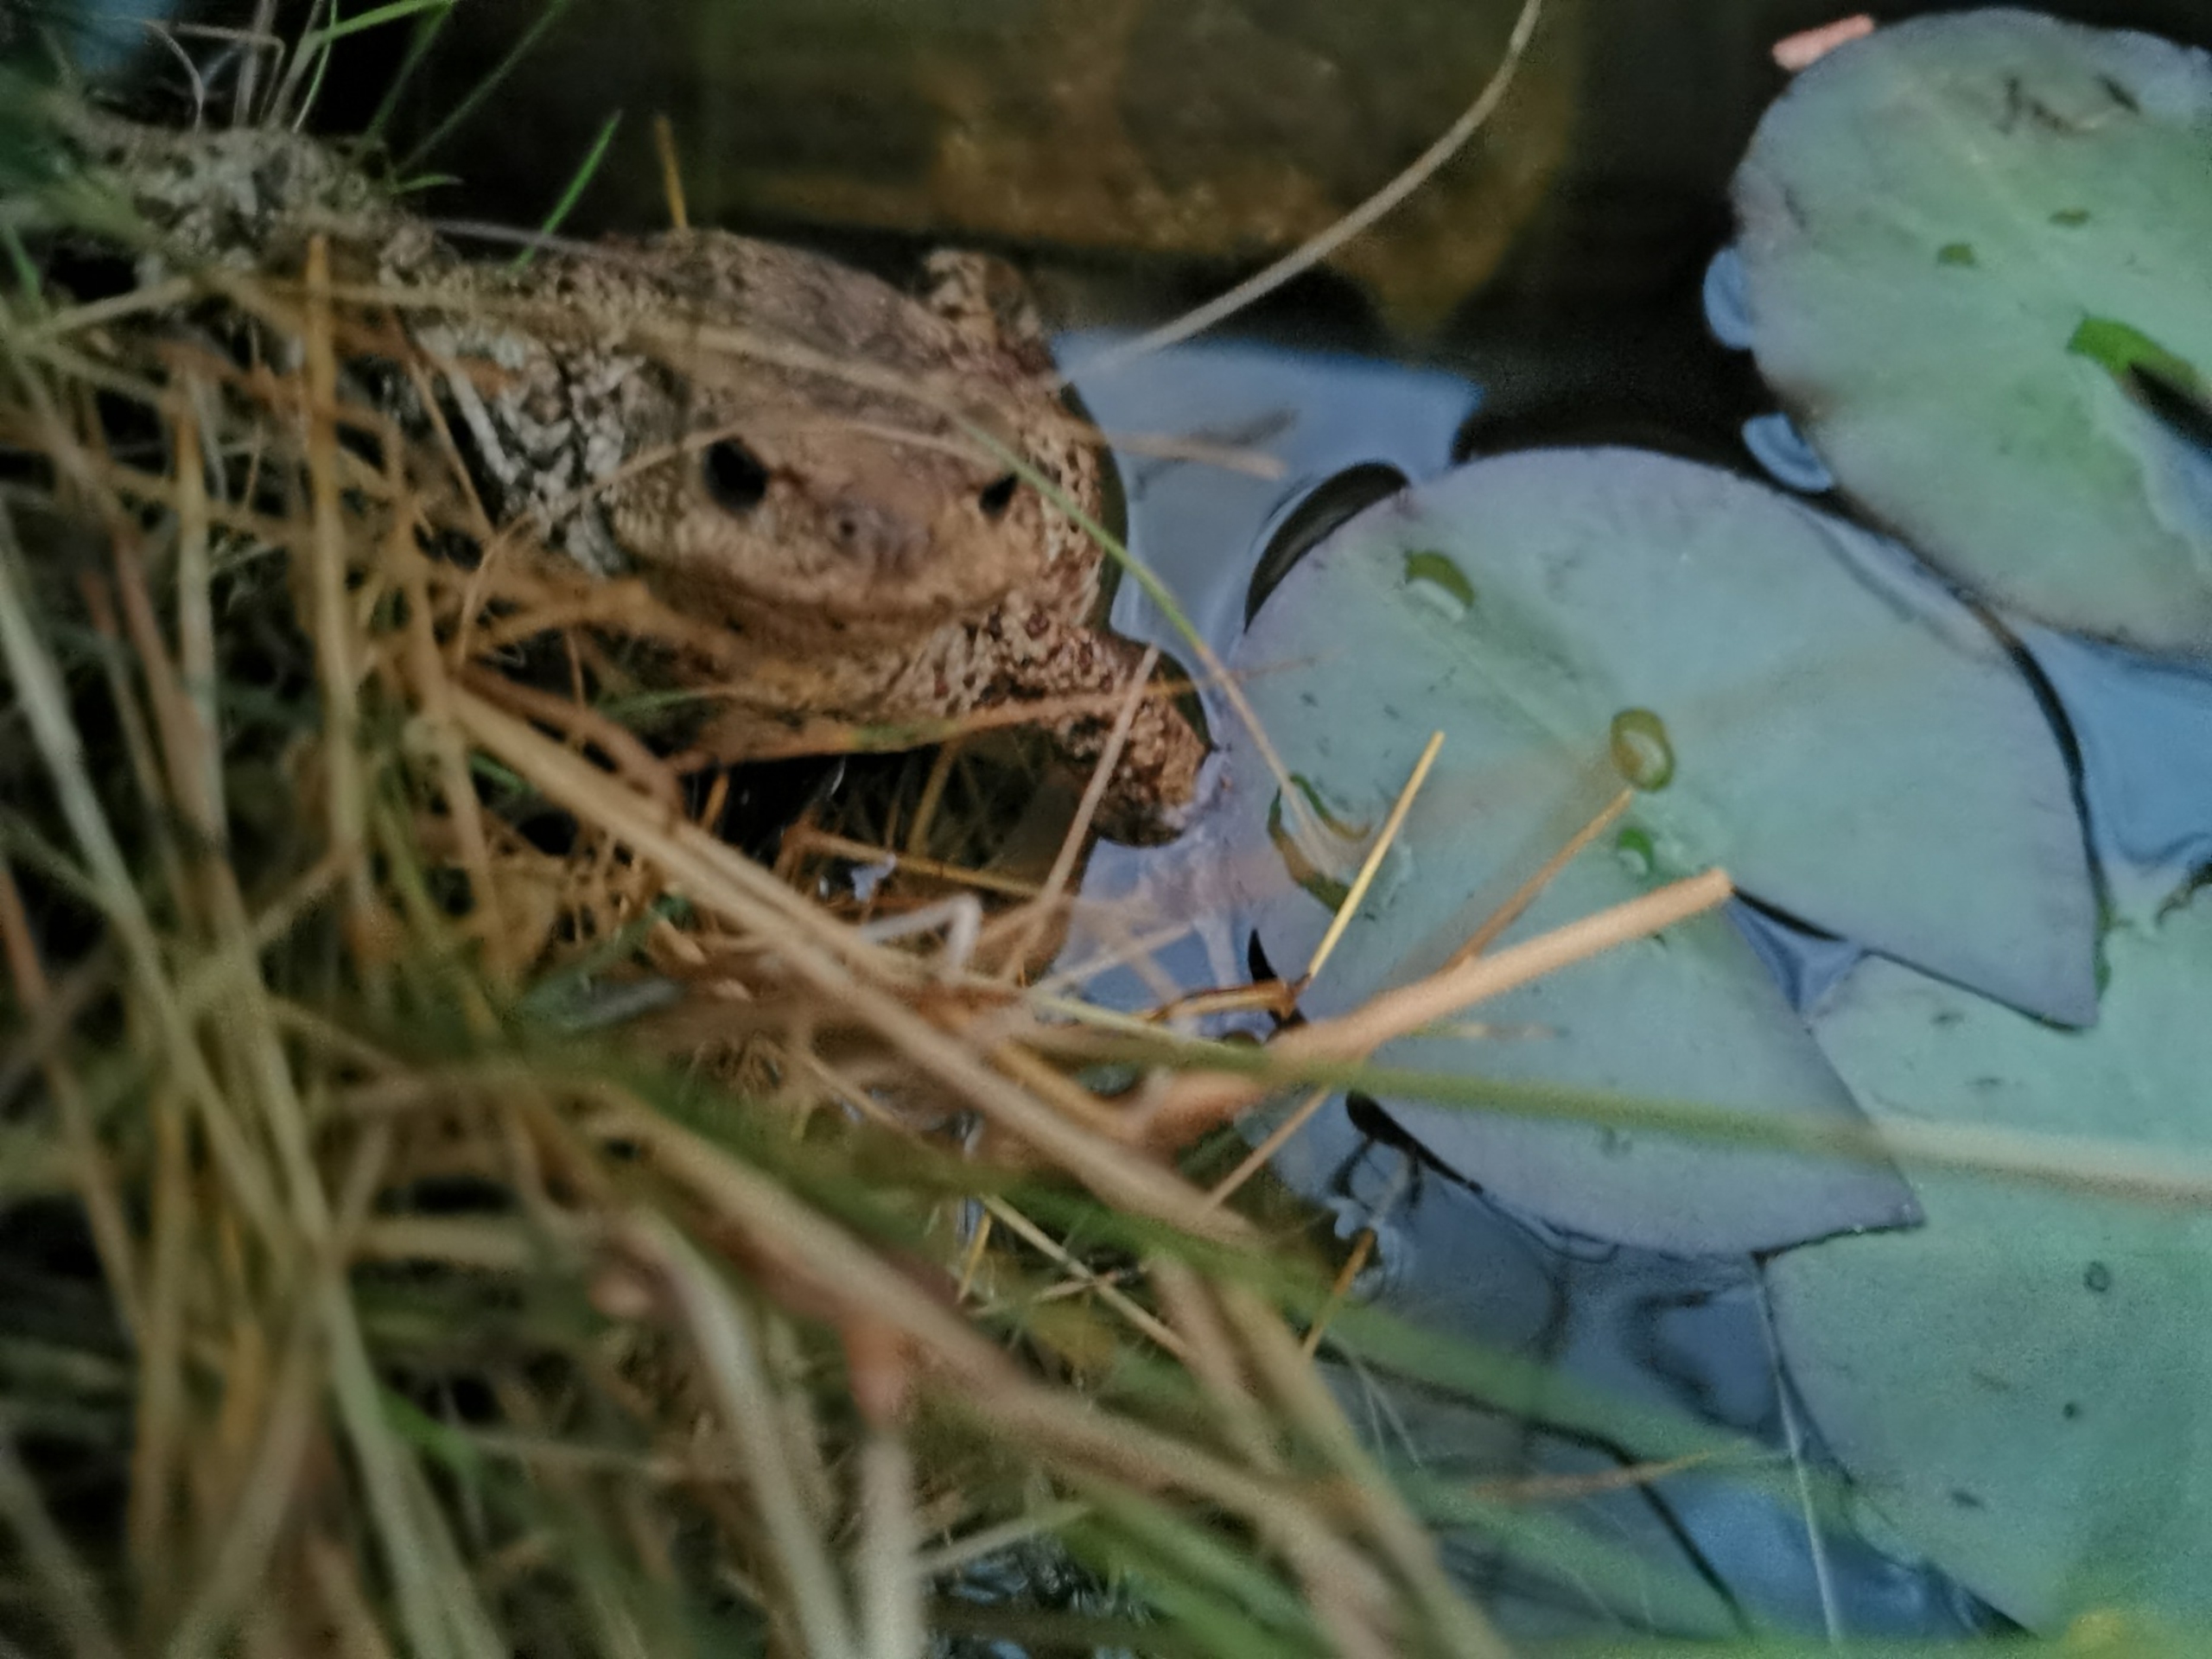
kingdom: Animalia
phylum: Chordata
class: Amphibia
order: Anura
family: Bufonidae
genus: Bufo
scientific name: Bufo bufo
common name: Skrubtudse
